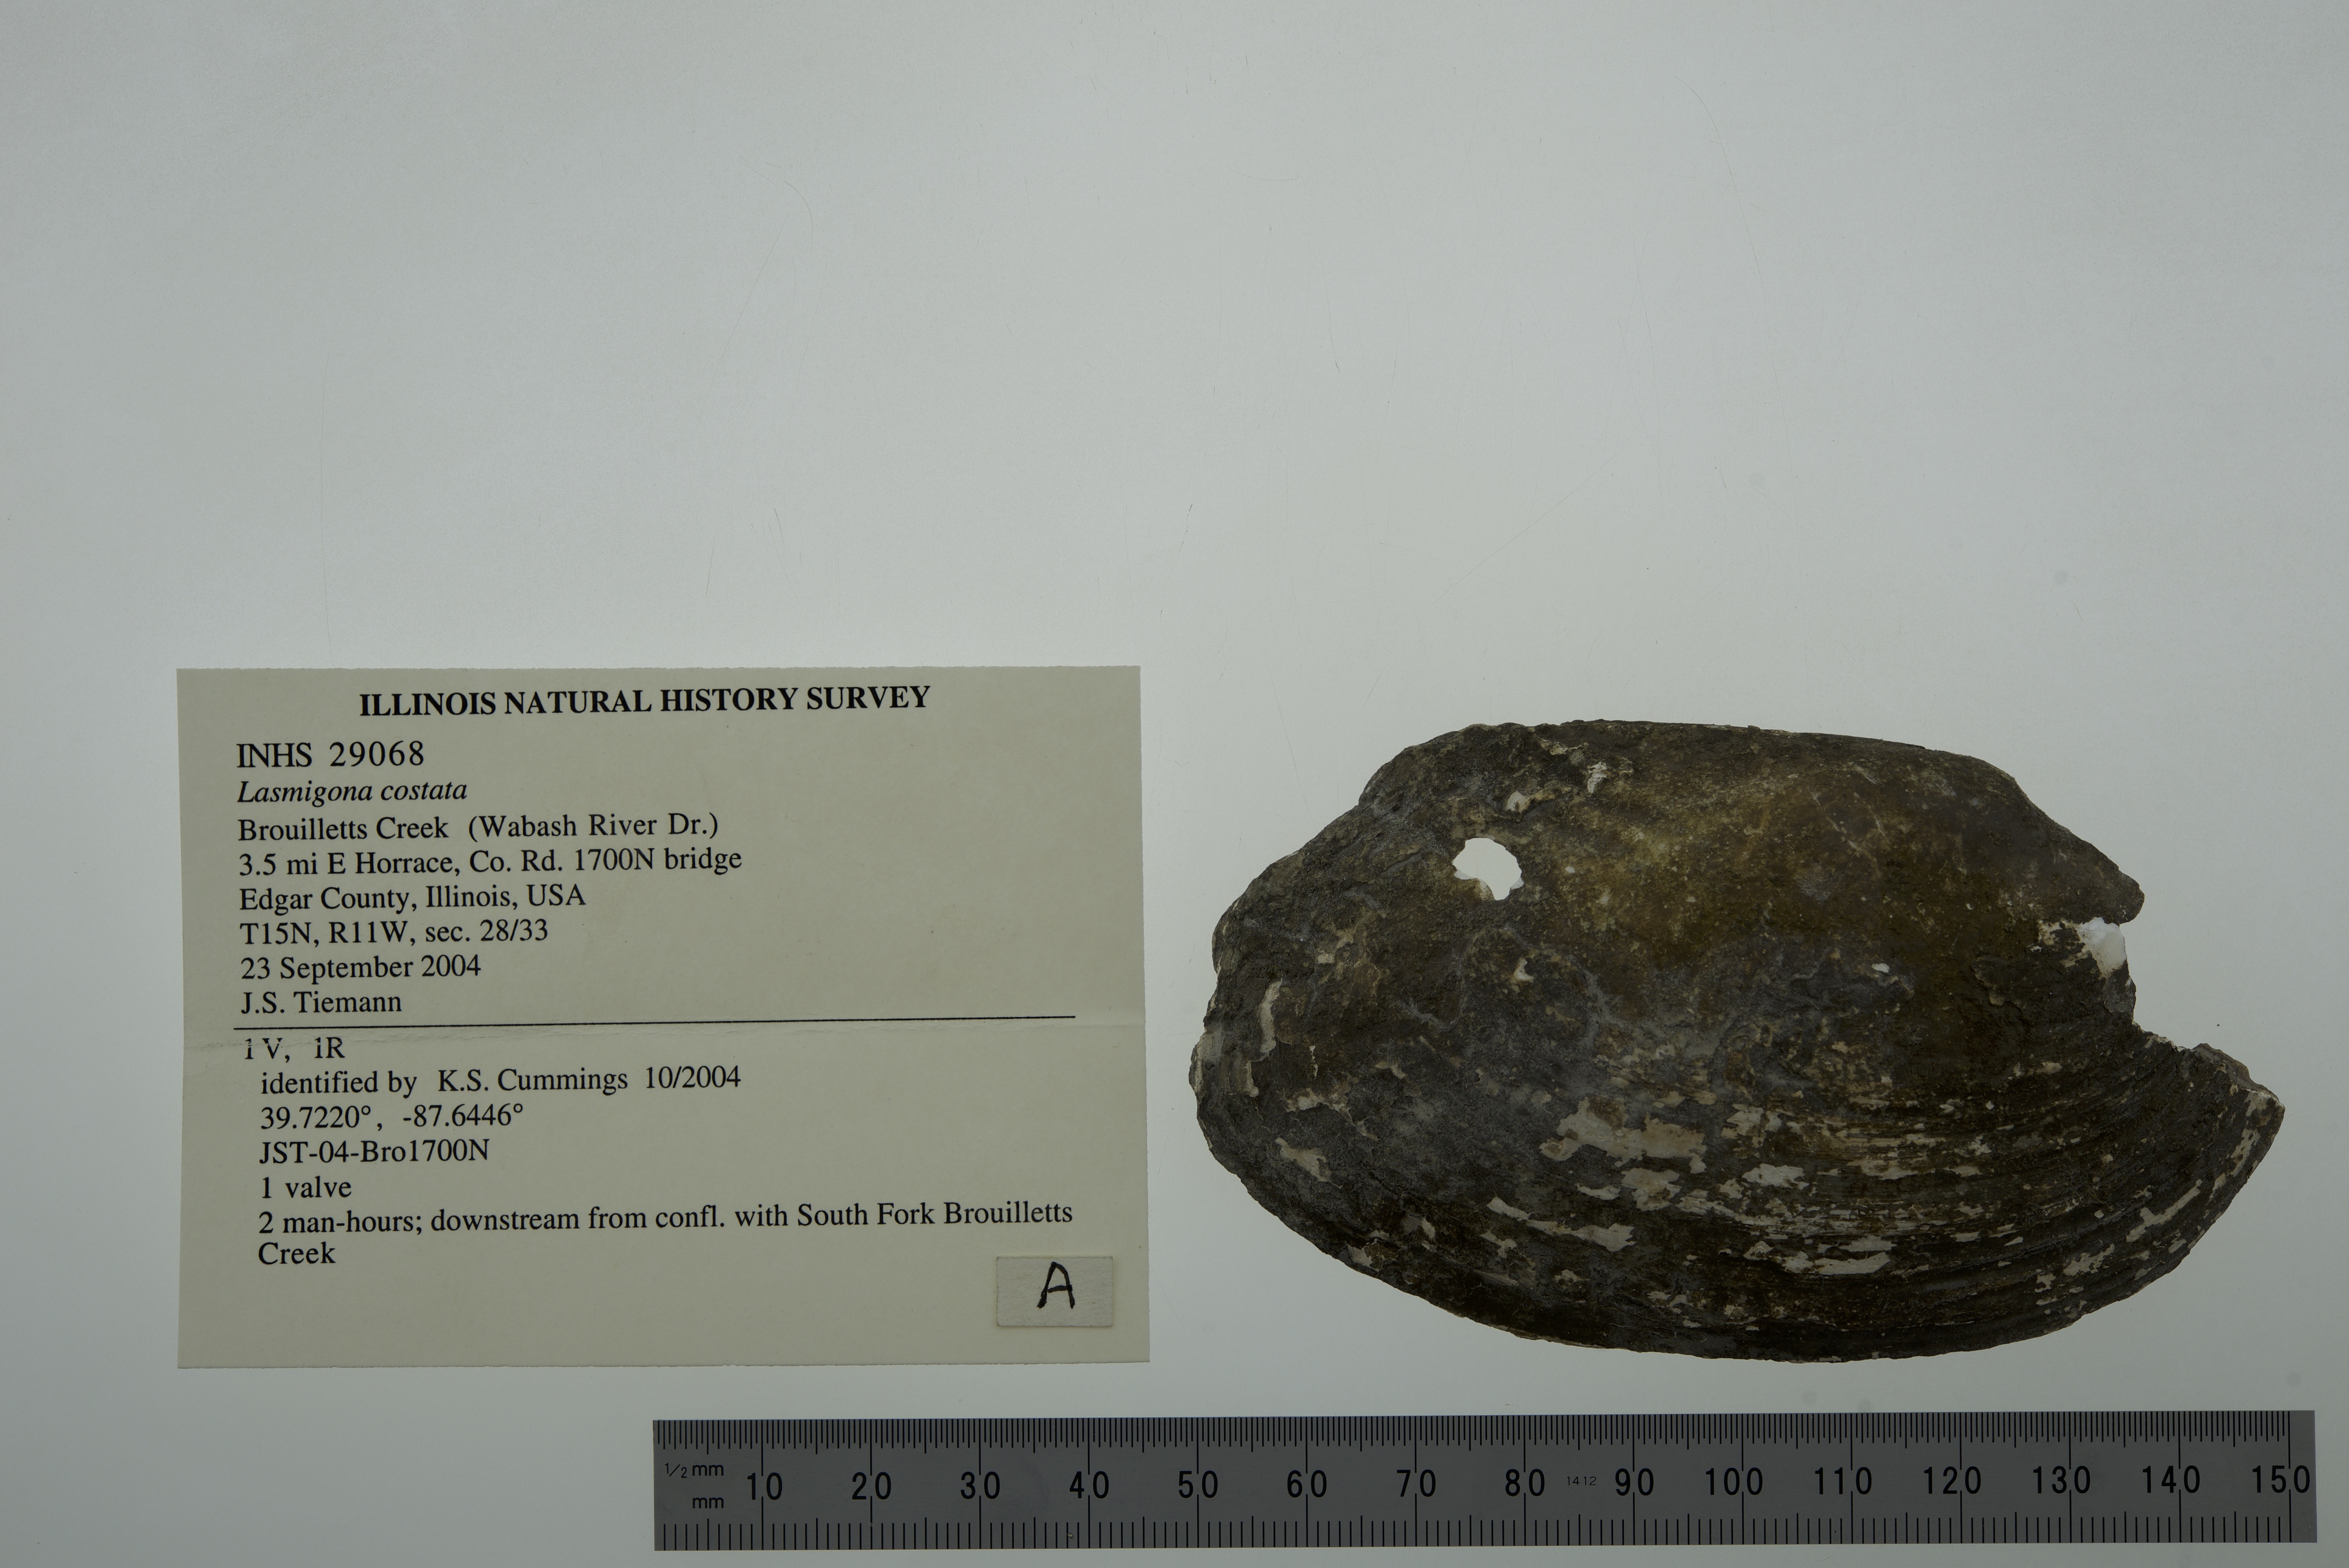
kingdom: Animalia
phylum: Mollusca
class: Bivalvia
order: Unionida
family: Unionidae
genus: Lasmigona
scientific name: Lasmigona costata
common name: Flutedshell
